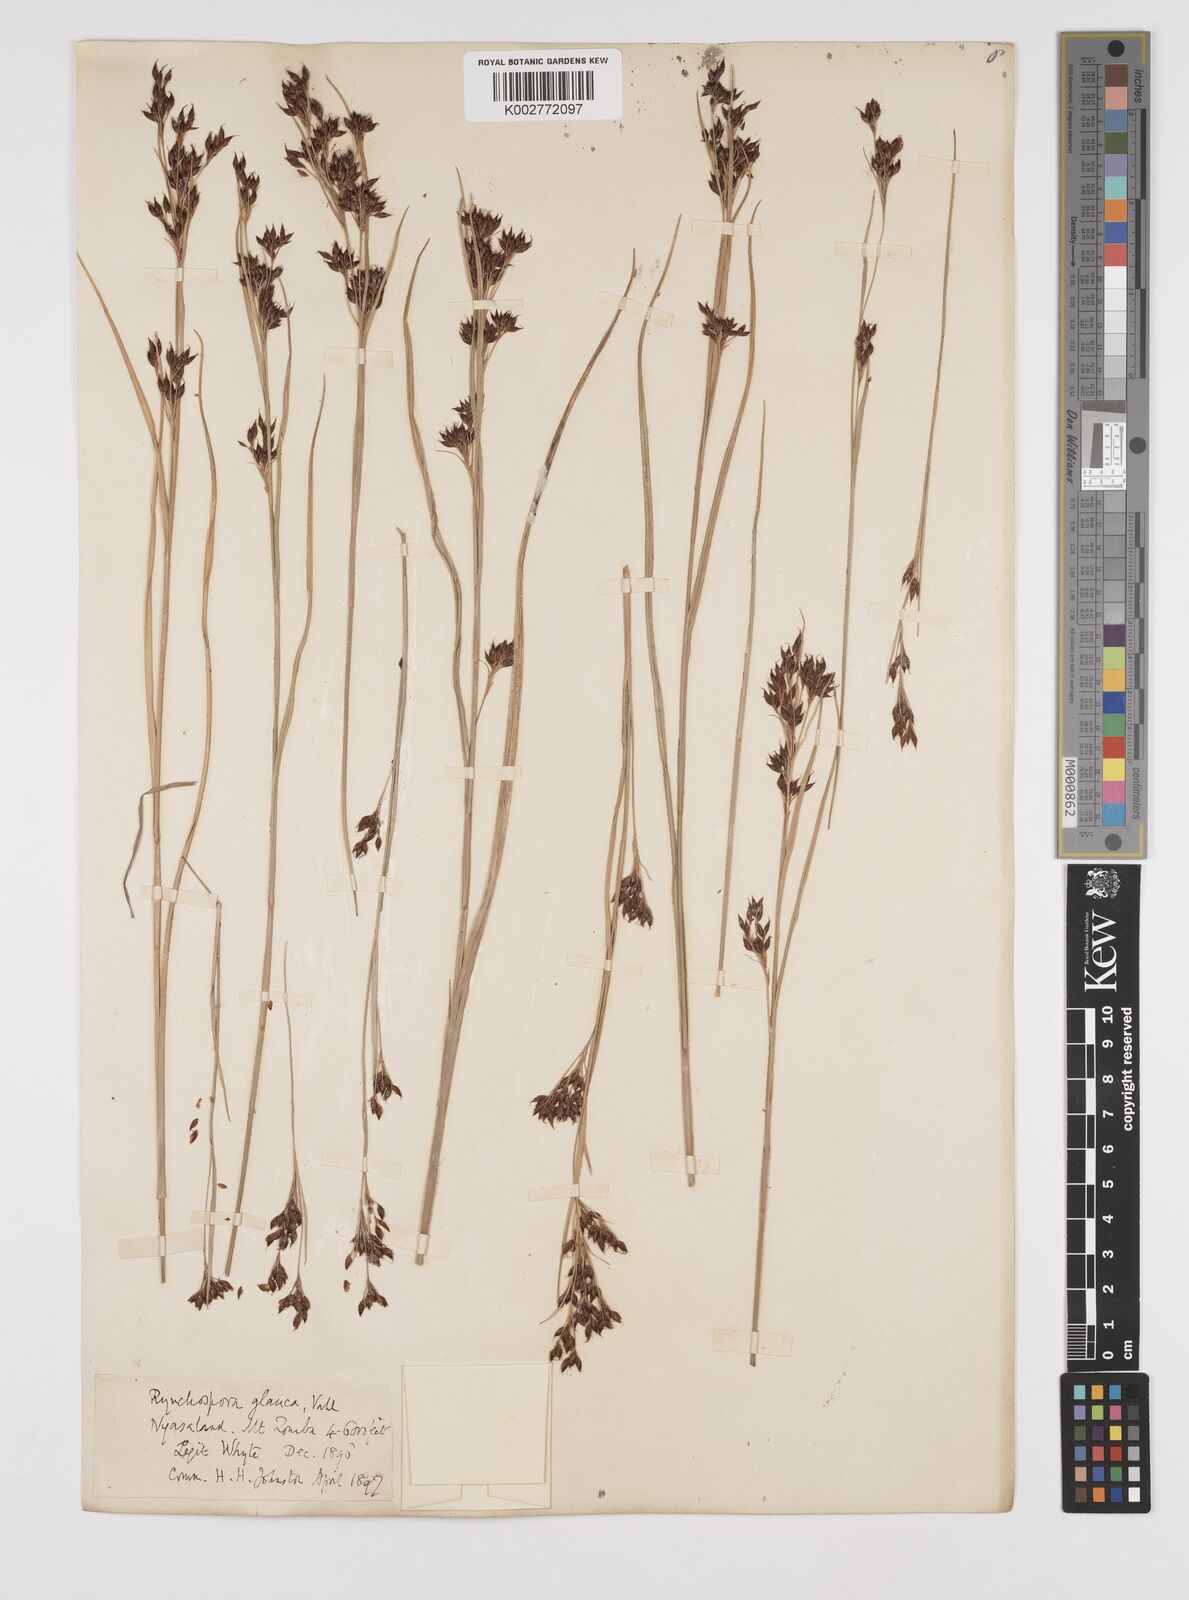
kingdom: Plantae
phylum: Tracheophyta
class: Liliopsida
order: Poales
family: Cyperaceae
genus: Rhynchospora
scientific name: Rhynchospora rugosa
